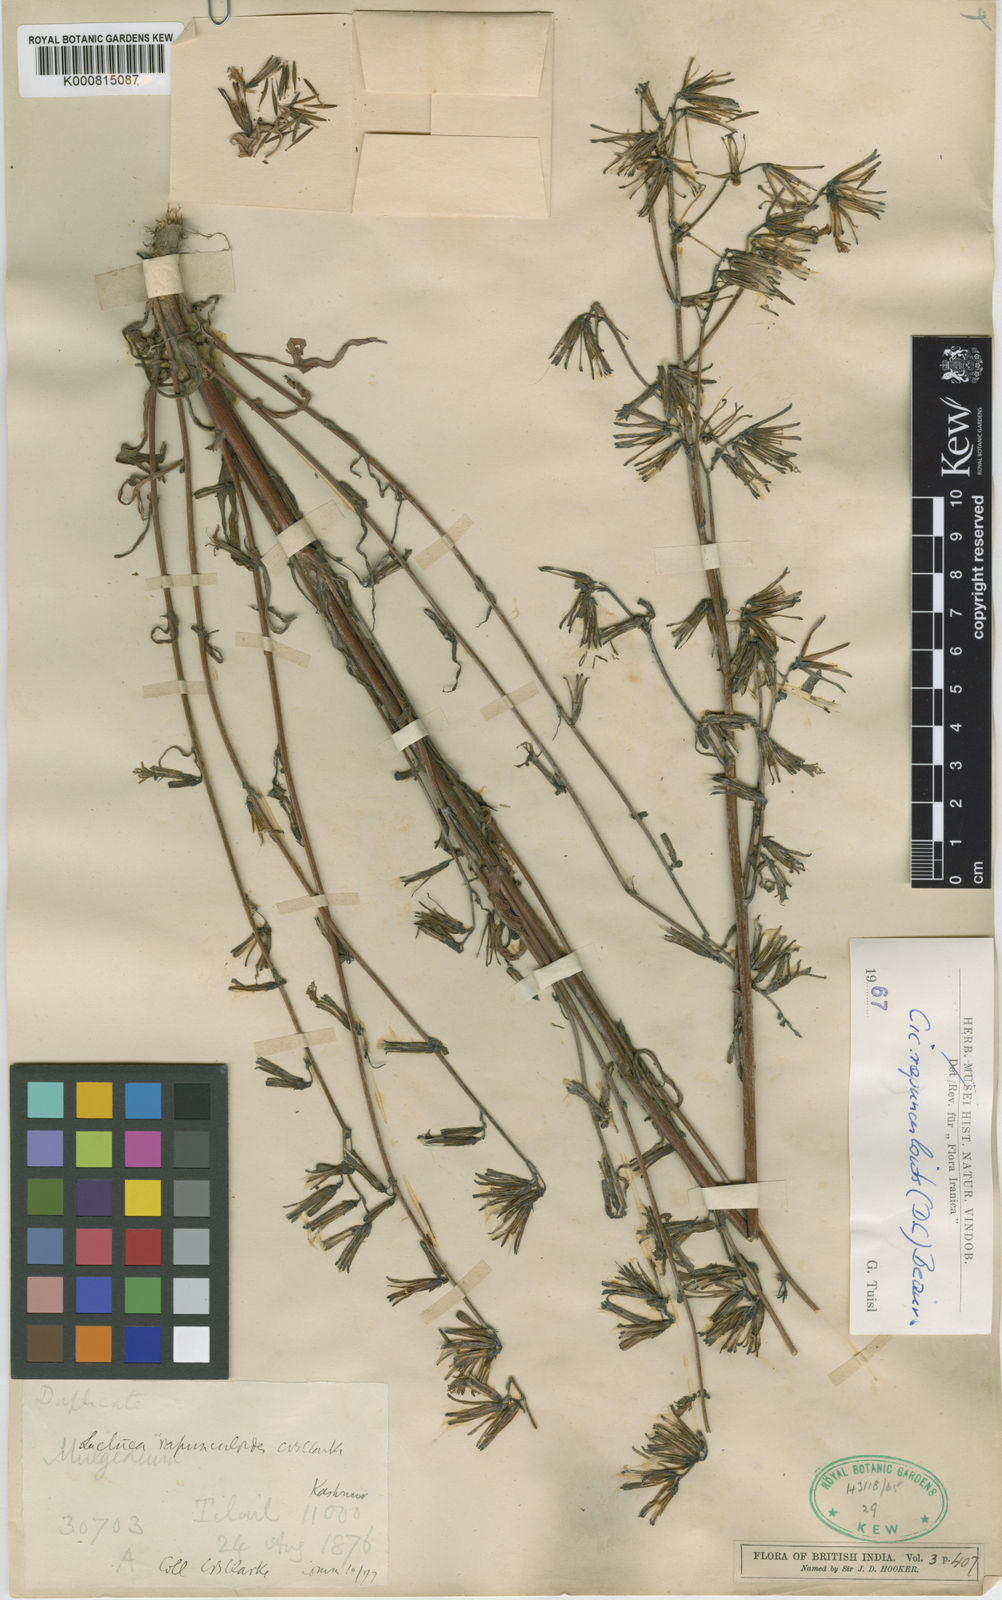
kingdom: Plantae
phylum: Tracheophyta
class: Magnoliopsida
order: Asterales
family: Asteraceae
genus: Kovalevskiella
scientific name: Kovalevskiella rapunculoides
